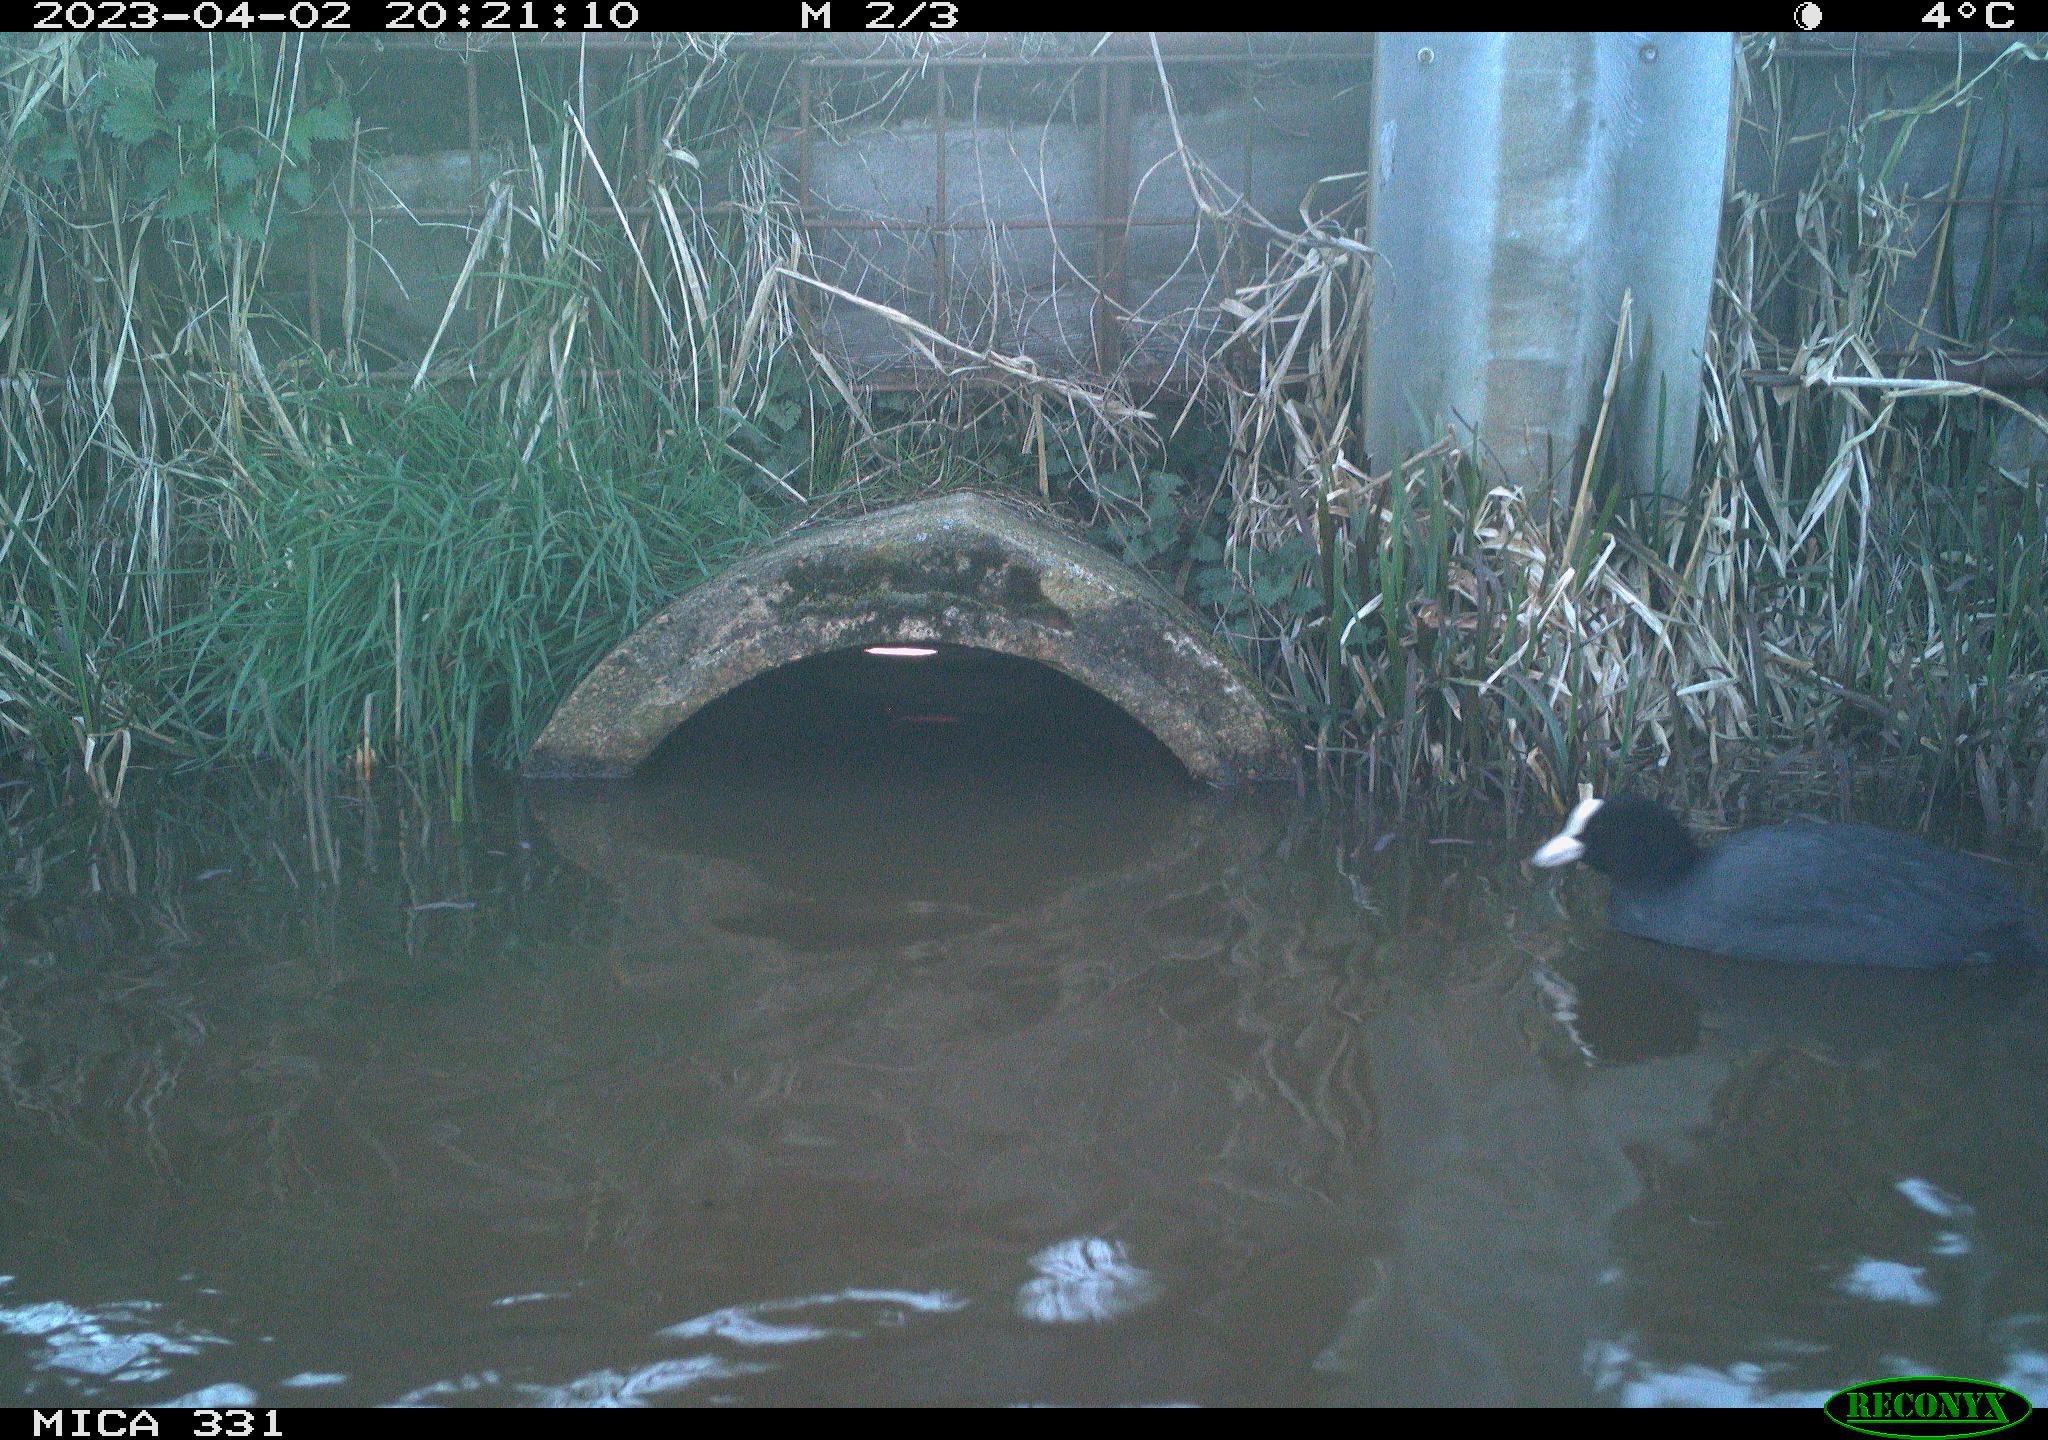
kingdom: Animalia
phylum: Chordata
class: Aves
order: Gruiformes
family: Rallidae
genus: Fulica
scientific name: Fulica atra
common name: Eurasian coot
